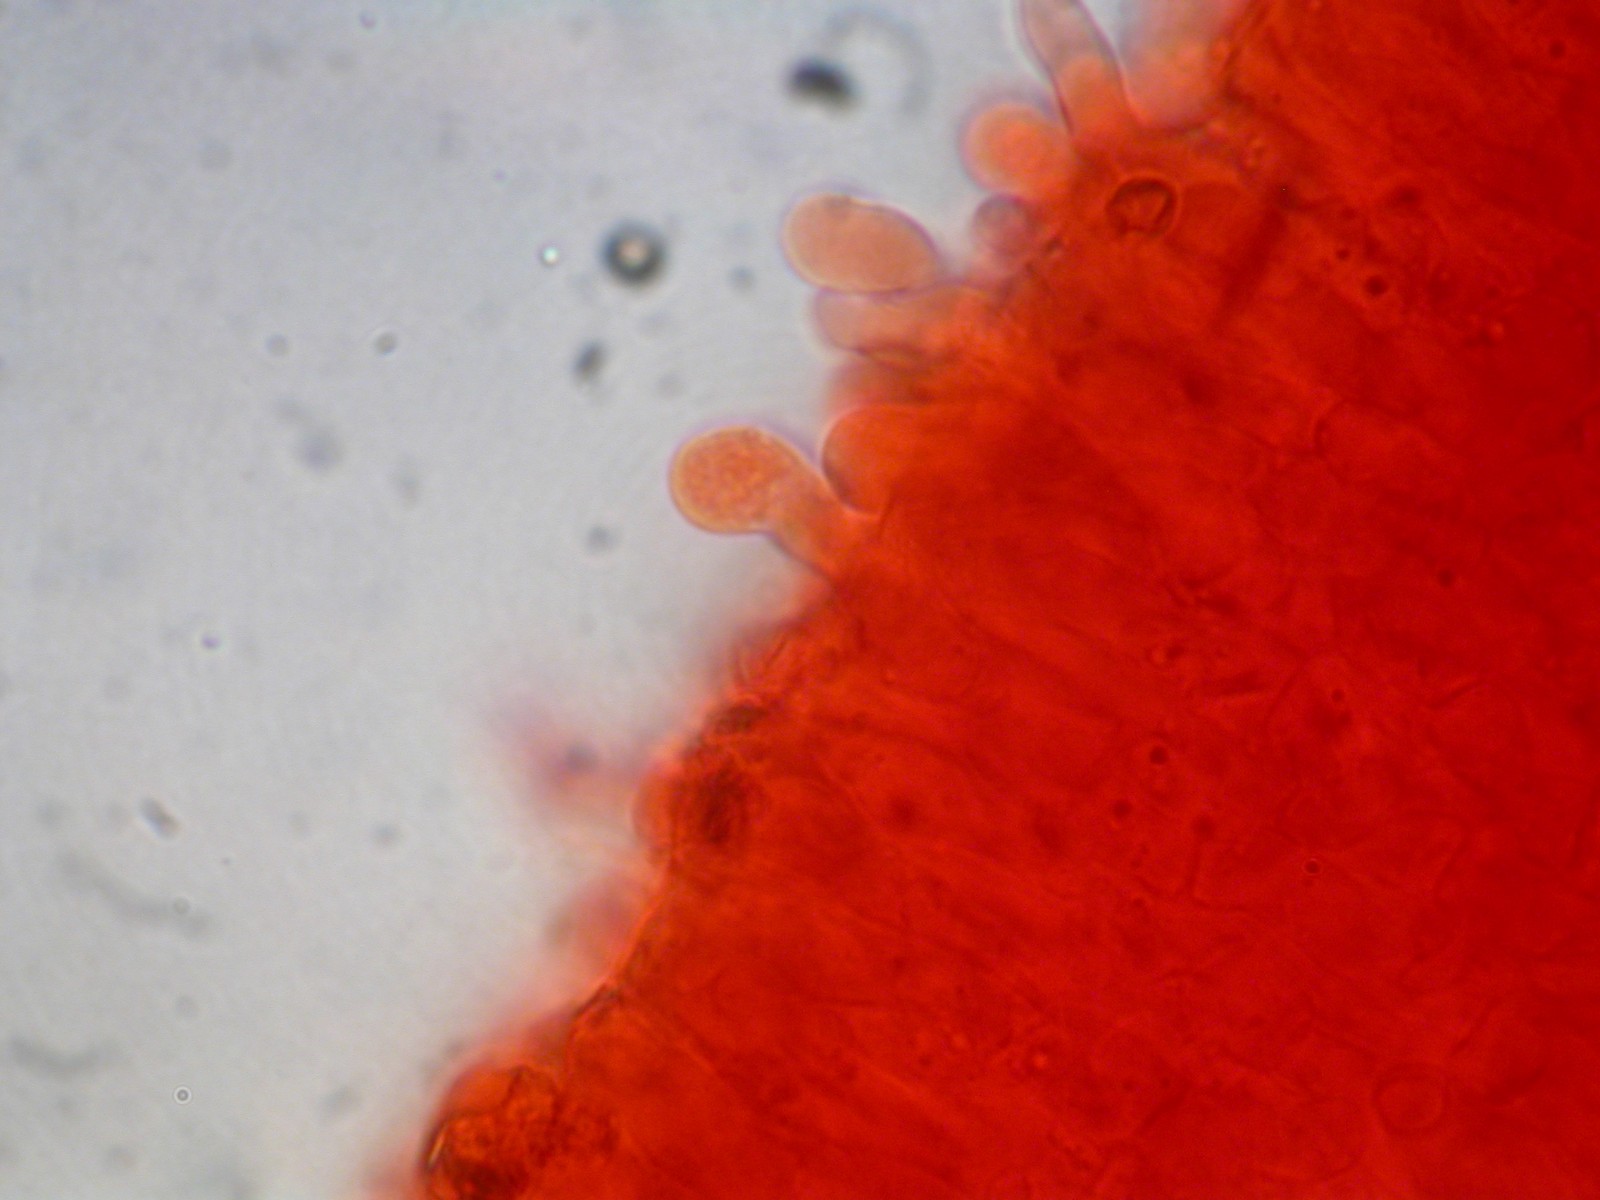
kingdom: Fungi
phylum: Basidiomycota
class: Agaricomycetes
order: Agaricales
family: Tricholomataceae
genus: Ripartites
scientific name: Ripartites
